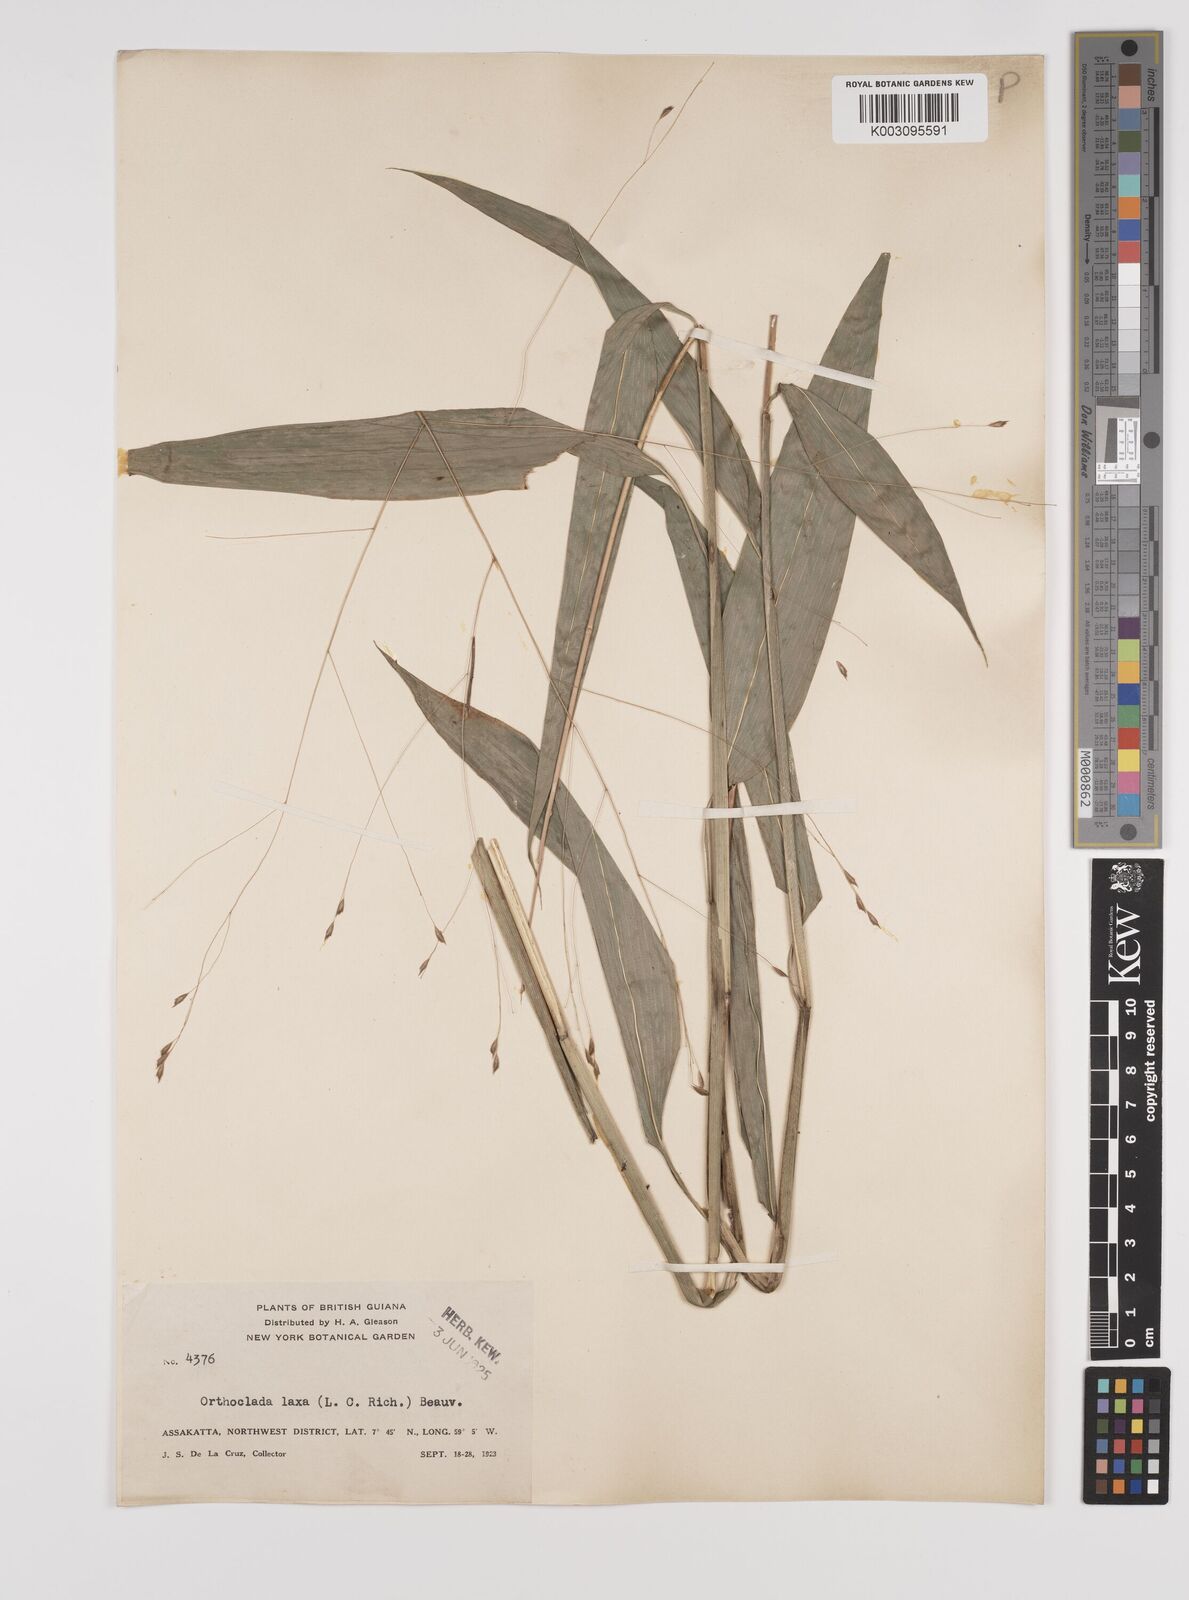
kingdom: Plantae
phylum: Tracheophyta
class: Liliopsida
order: Poales
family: Poaceae
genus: Orthoclada
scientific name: Orthoclada laxa
